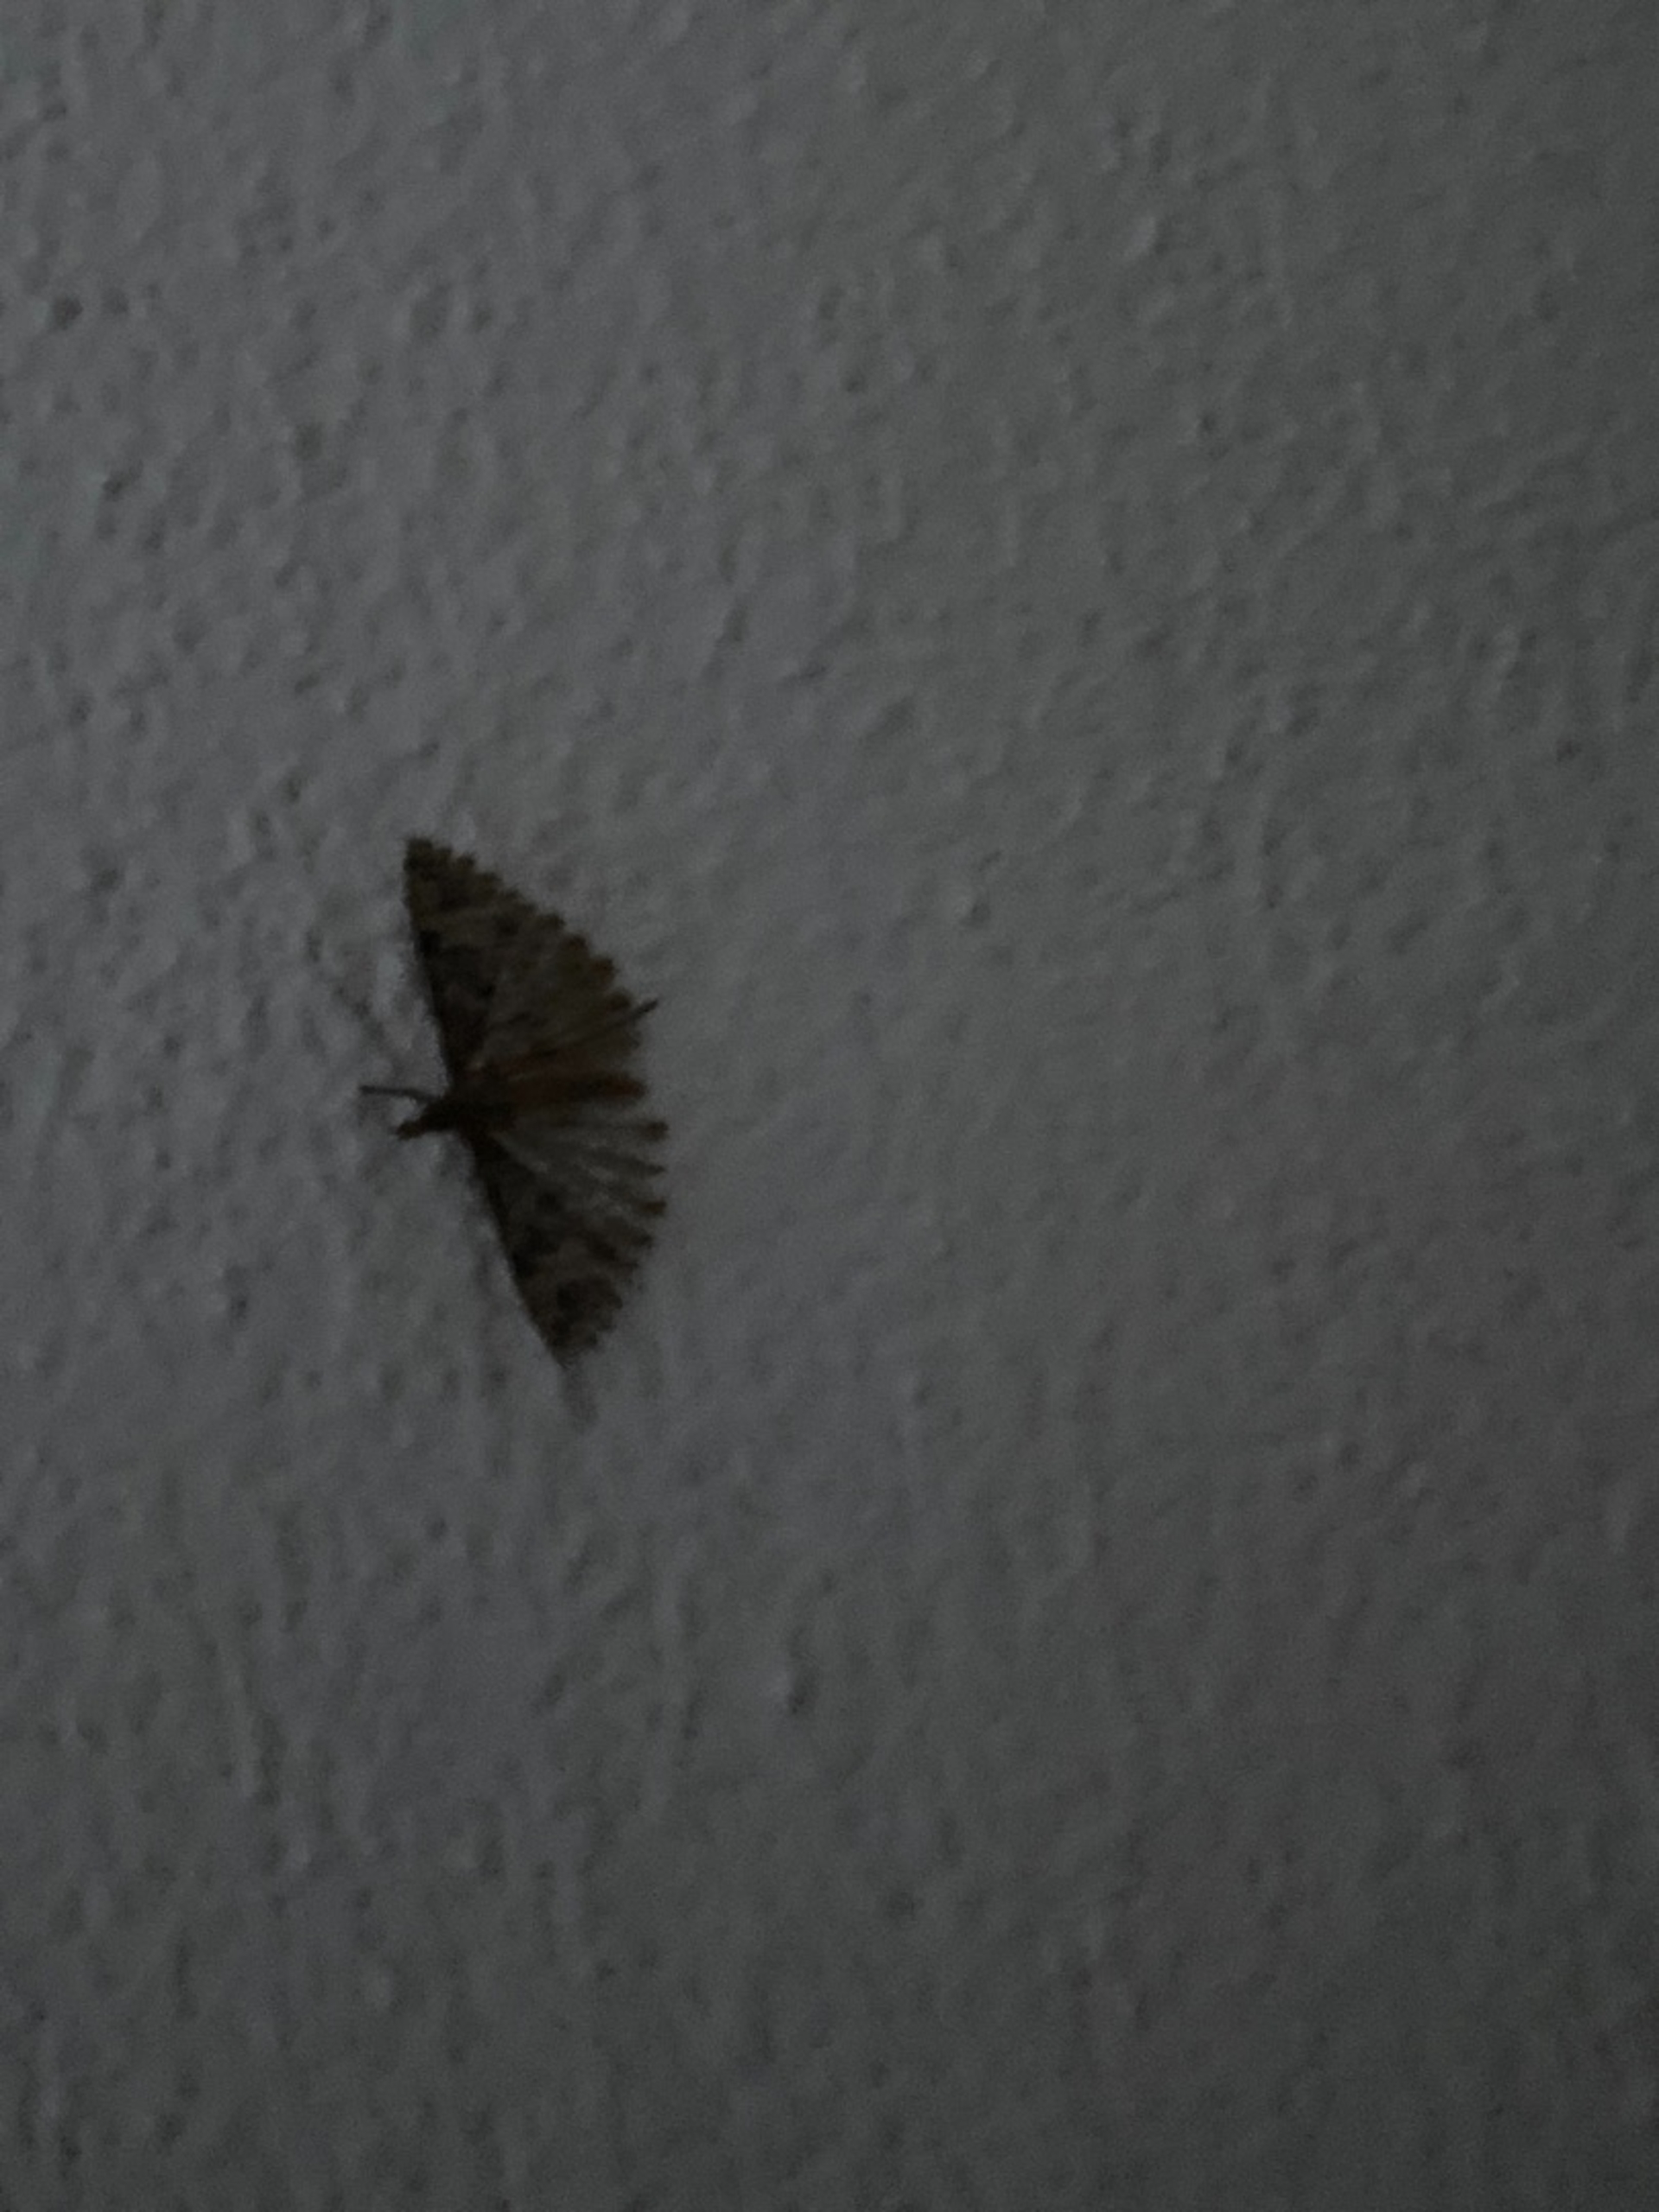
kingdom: Animalia
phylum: Arthropoda
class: Insecta
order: Lepidoptera
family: Alucitidae
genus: Alucita
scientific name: Alucita hexadactyla
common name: Kaprifoliefjermøl
